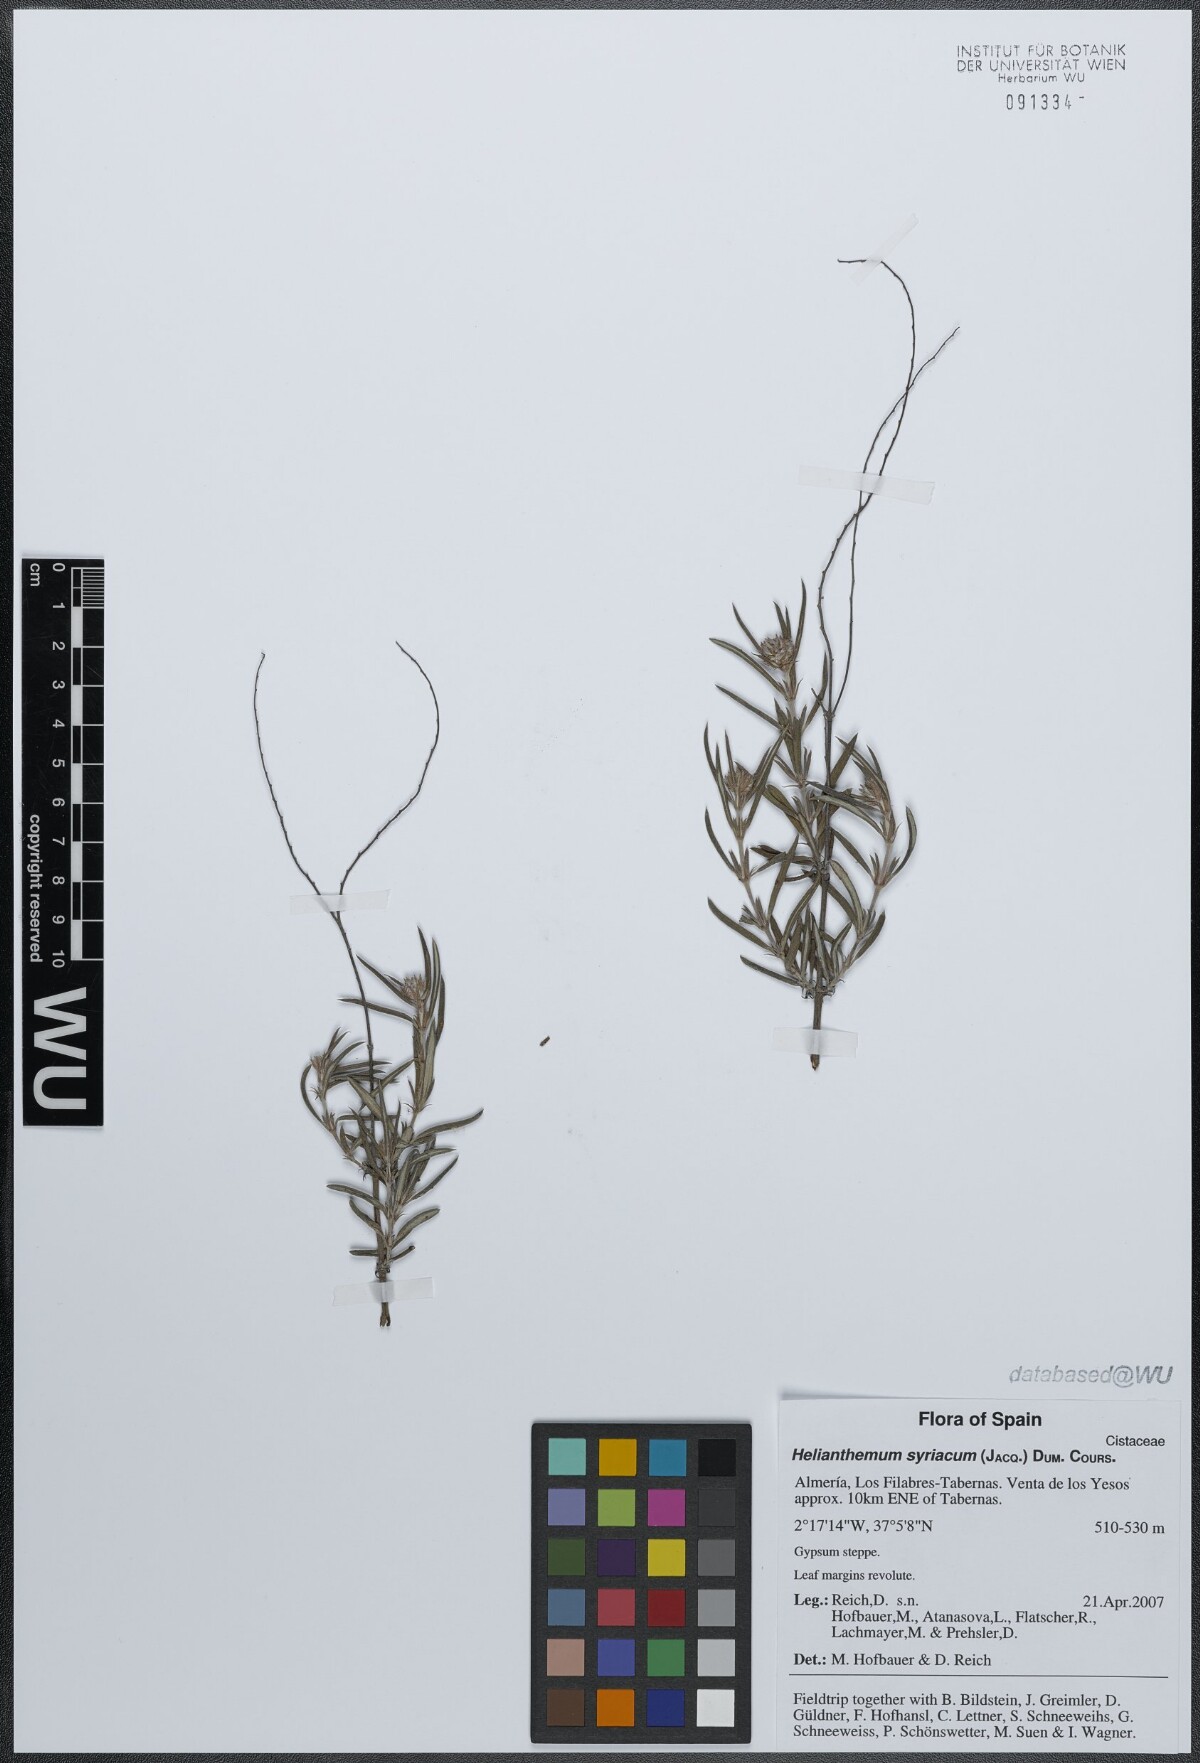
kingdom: Plantae
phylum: Tracheophyta
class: Magnoliopsida
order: Malvales
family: Cistaceae
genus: Helianthemum
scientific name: Helianthemum syriacum
